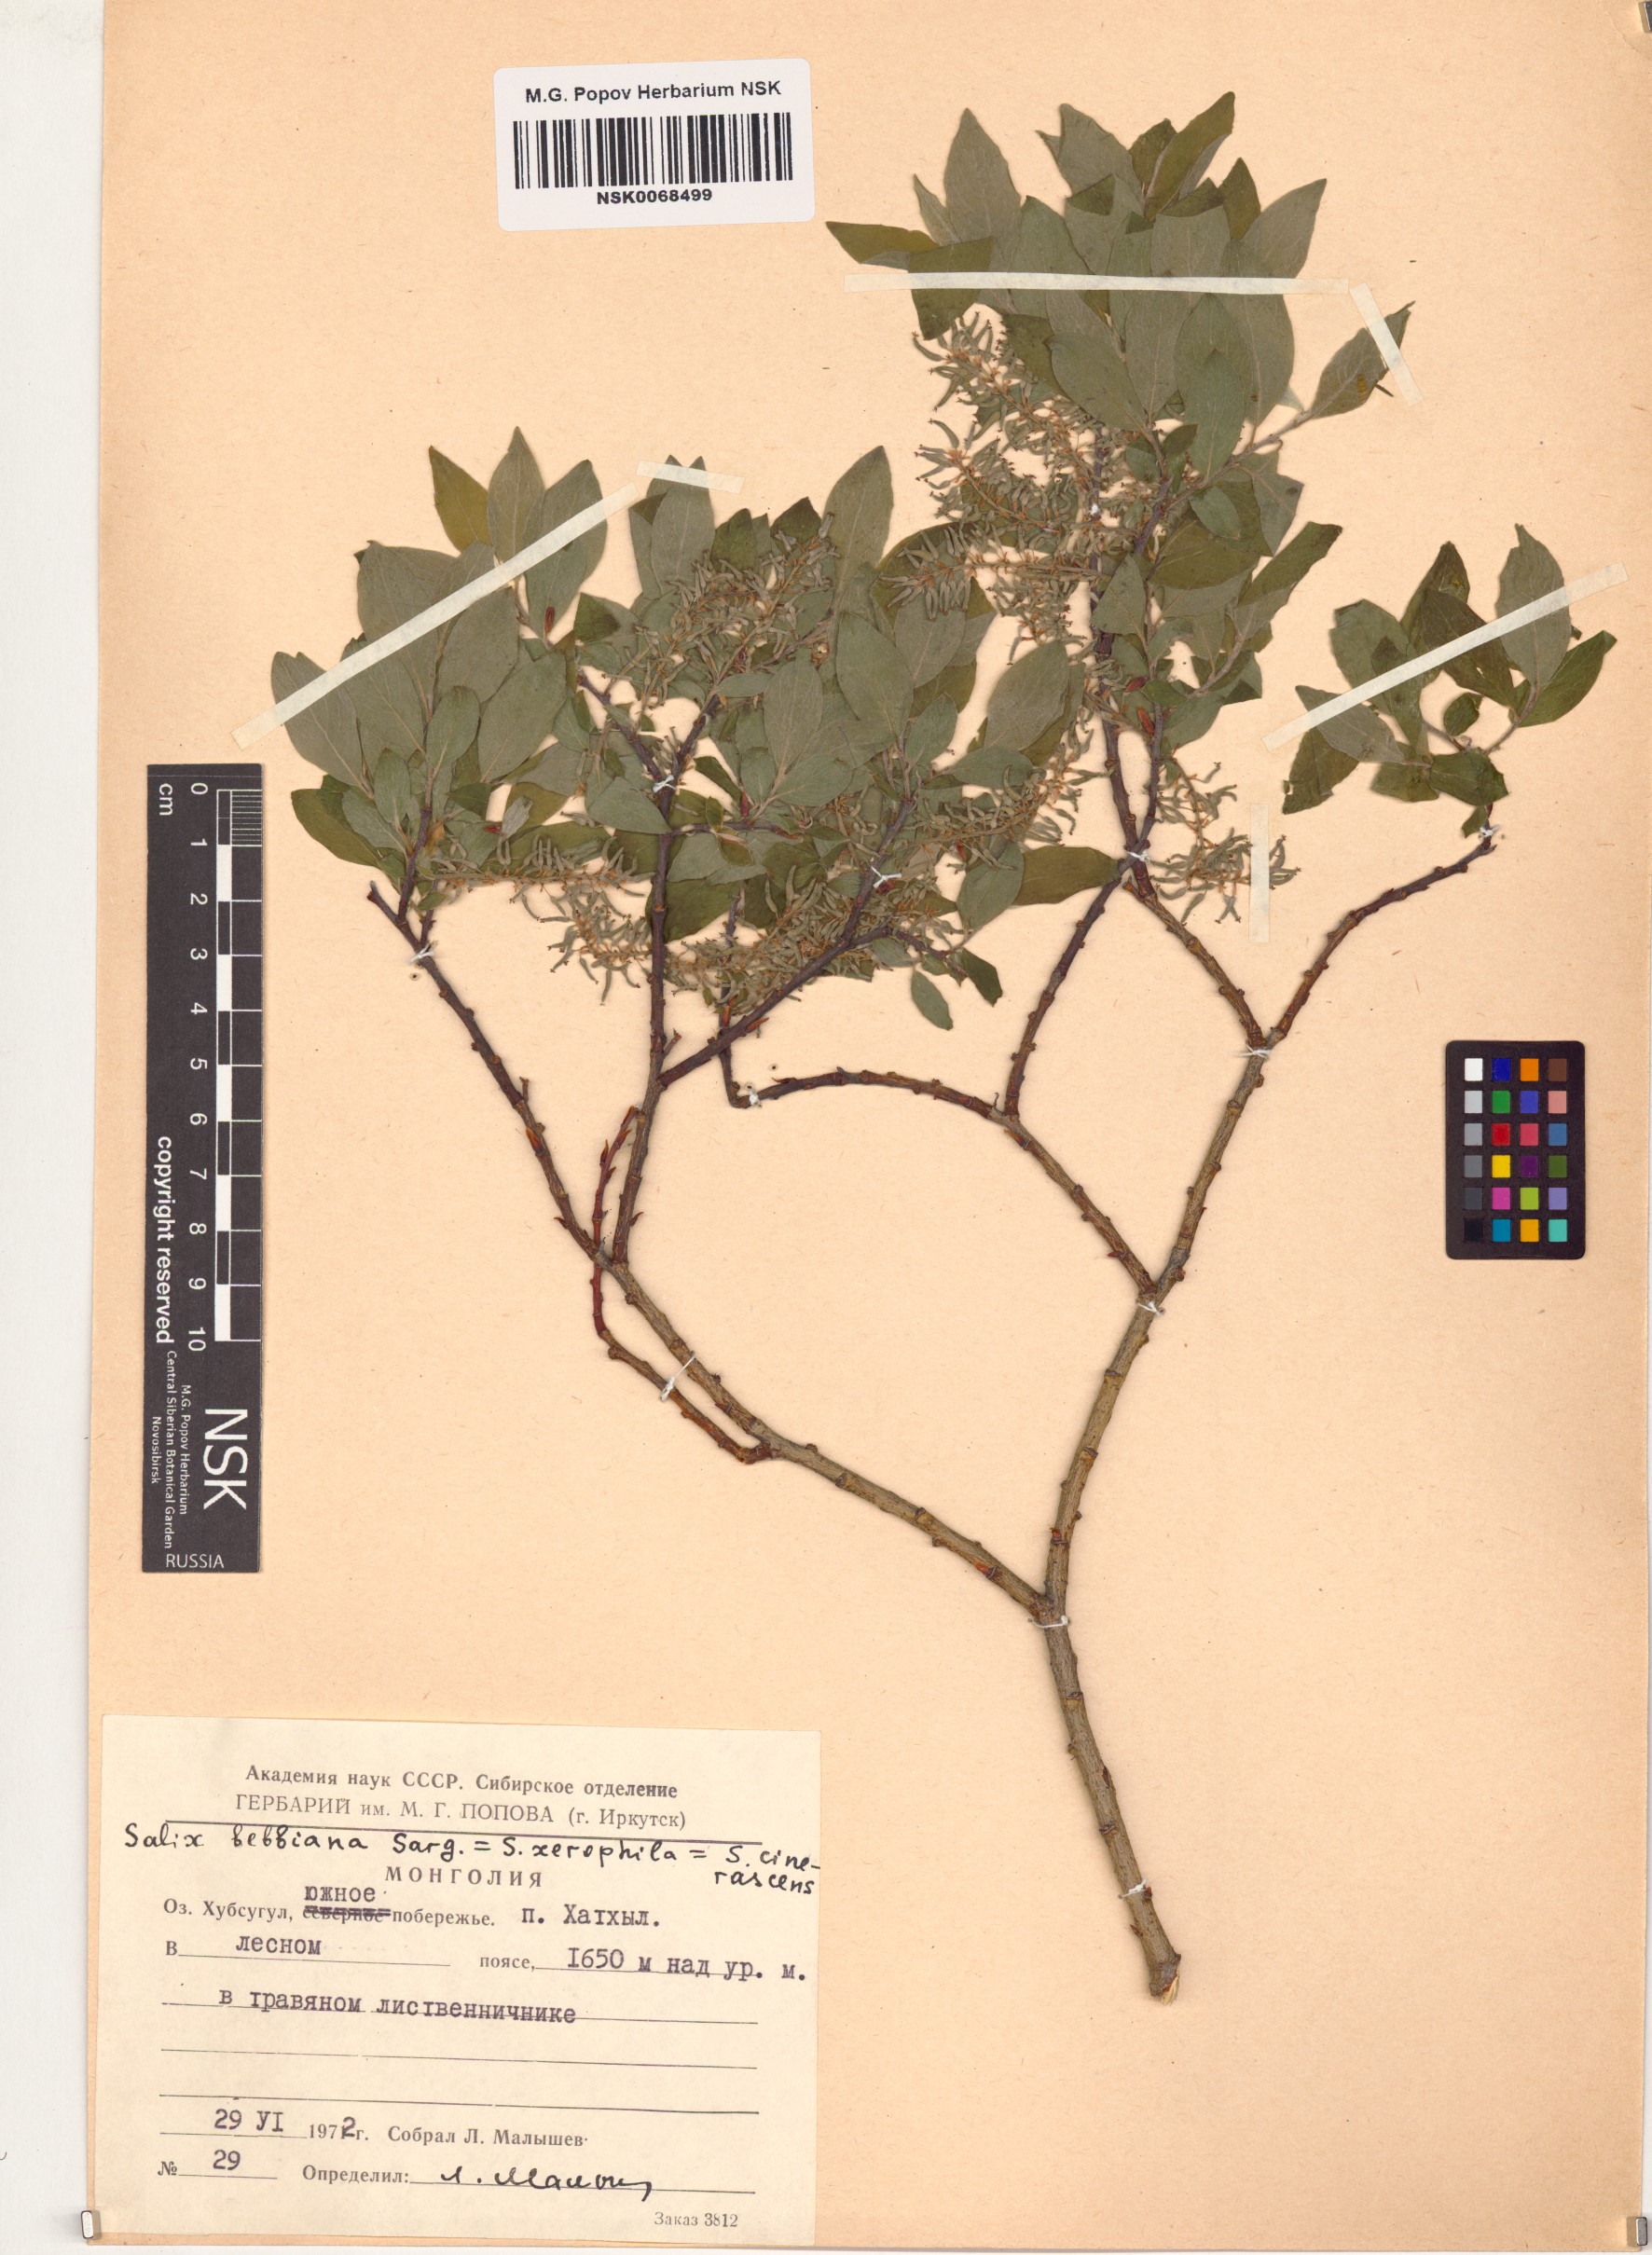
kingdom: Plantae
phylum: Tracheophyta
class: Magnoliopsida
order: Malpighiales
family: Salicaceae
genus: Salix
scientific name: Salix bebbiana
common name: Bebb's willow
